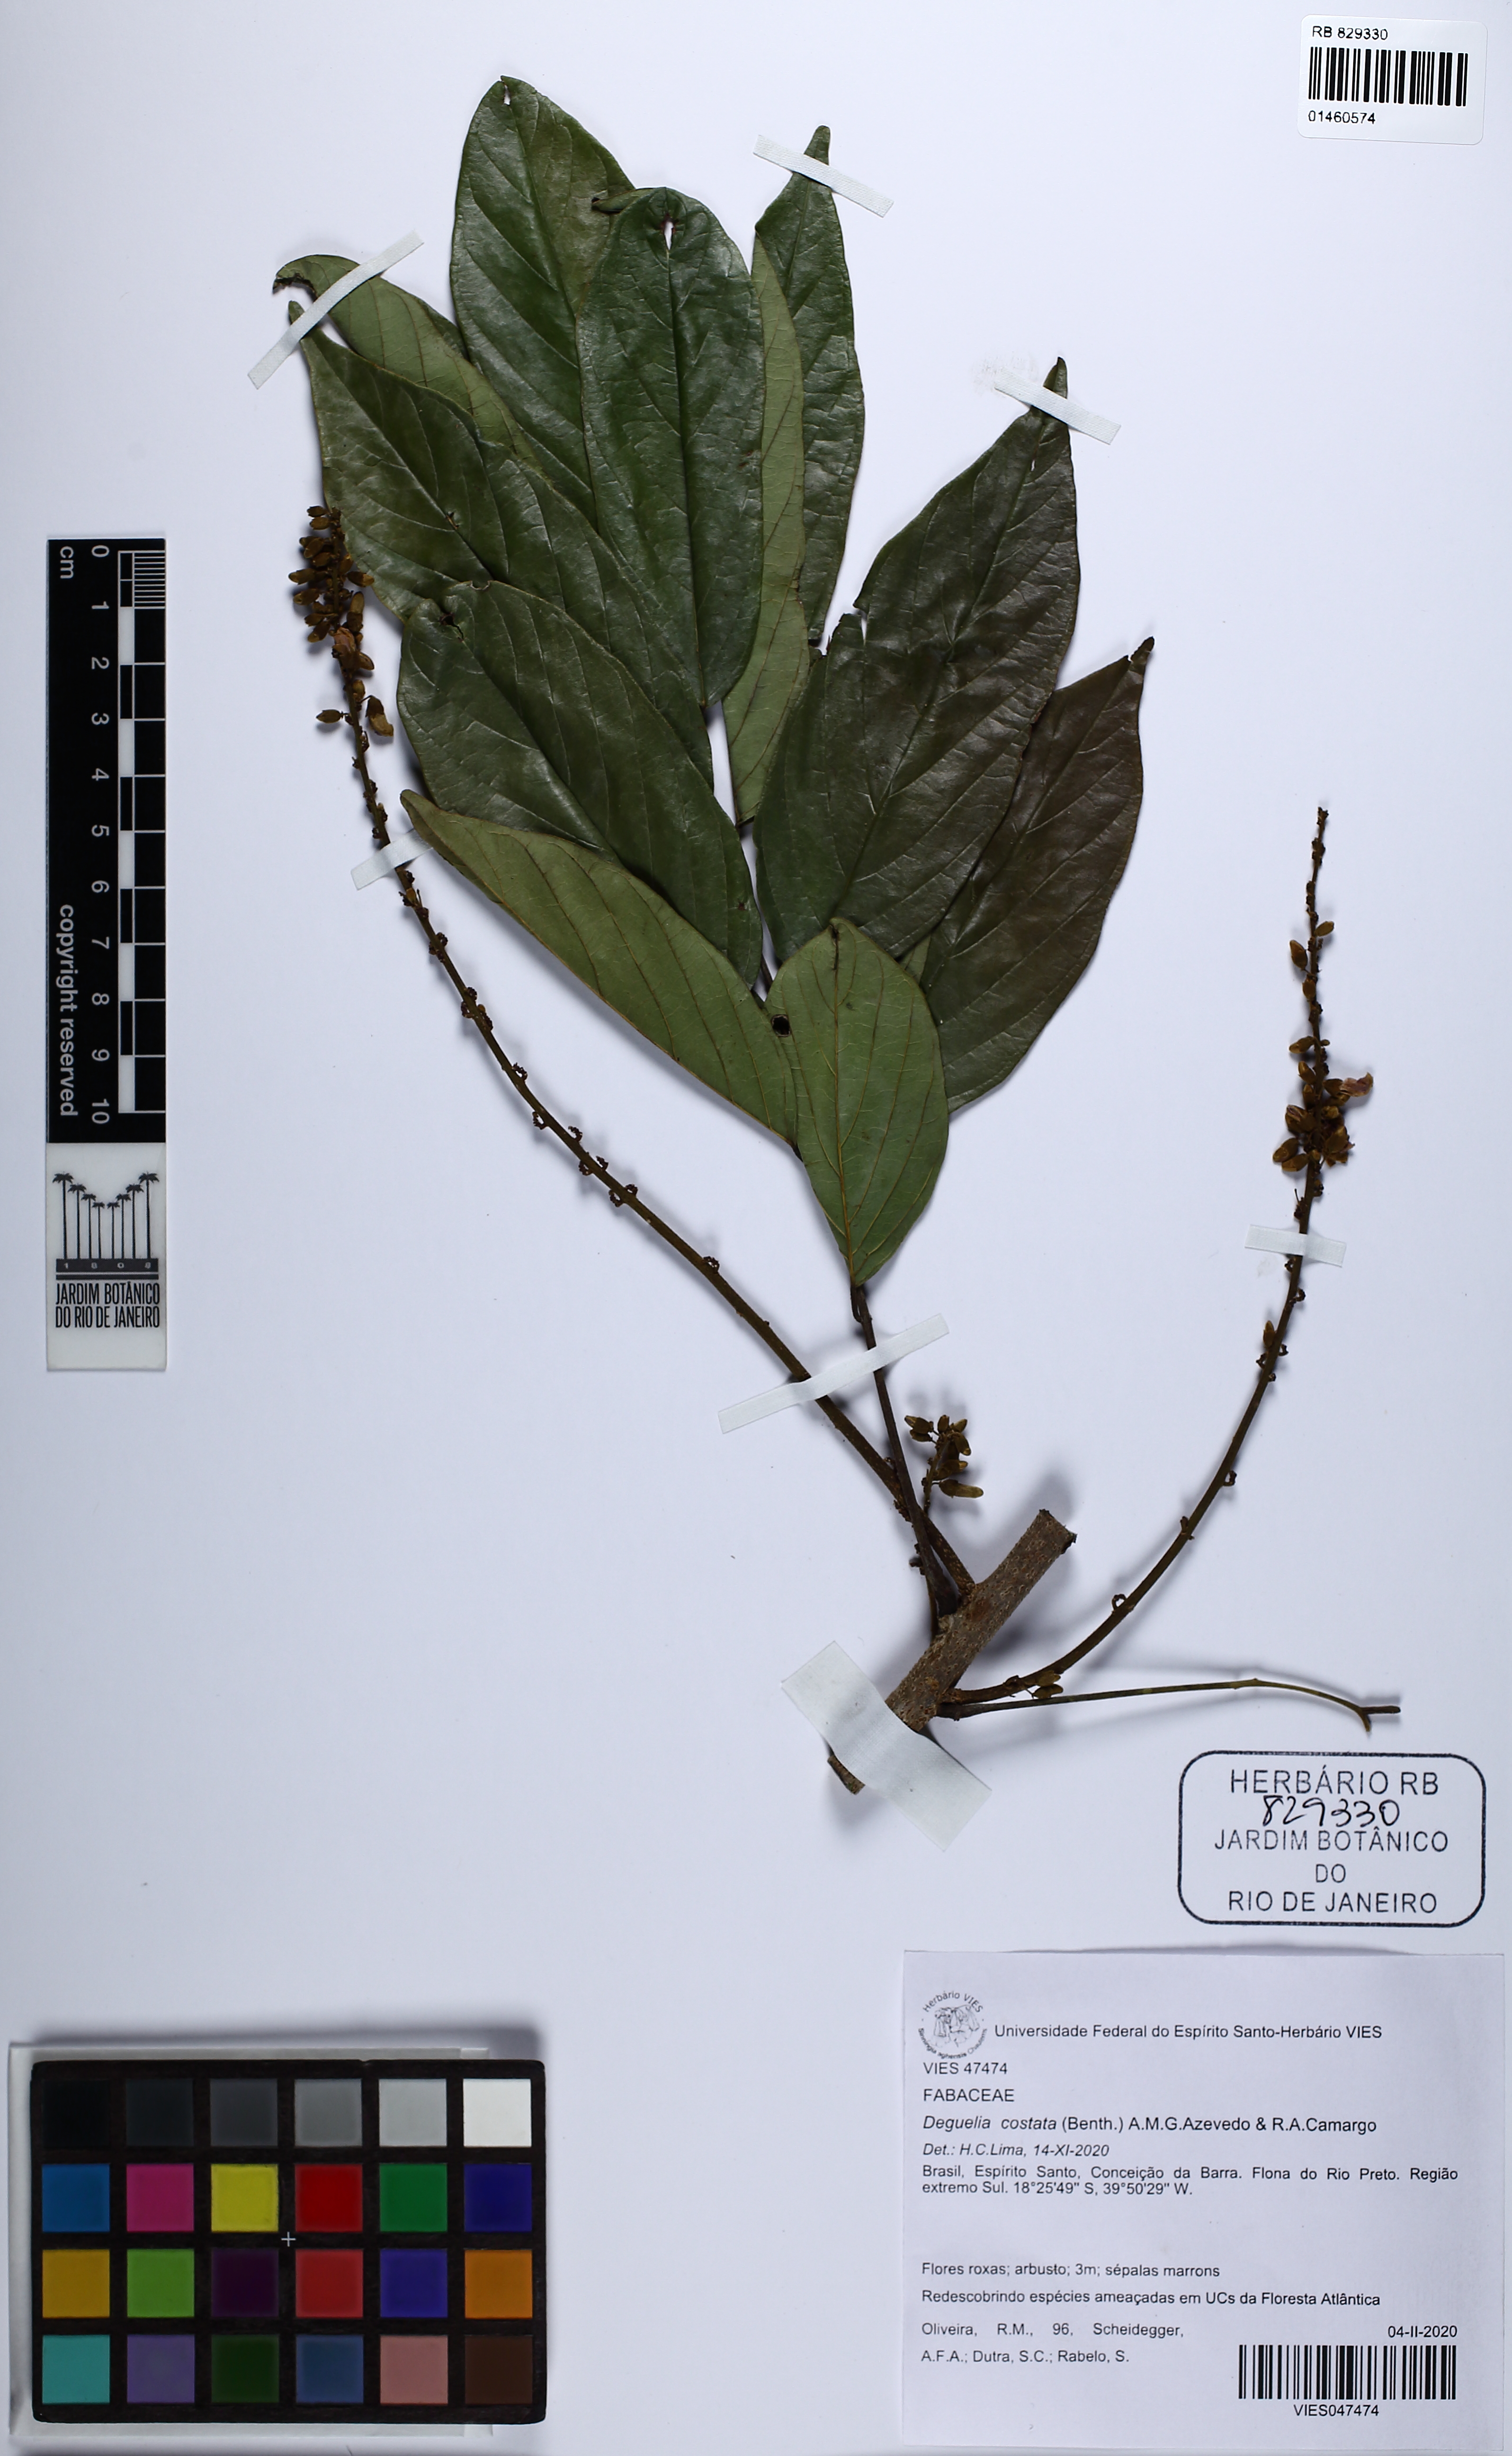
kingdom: Plantae
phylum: Tracheophyta
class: Magnoliopsida
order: Fabales
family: Fabaceae
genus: Deguelia
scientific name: Deguelia costata
